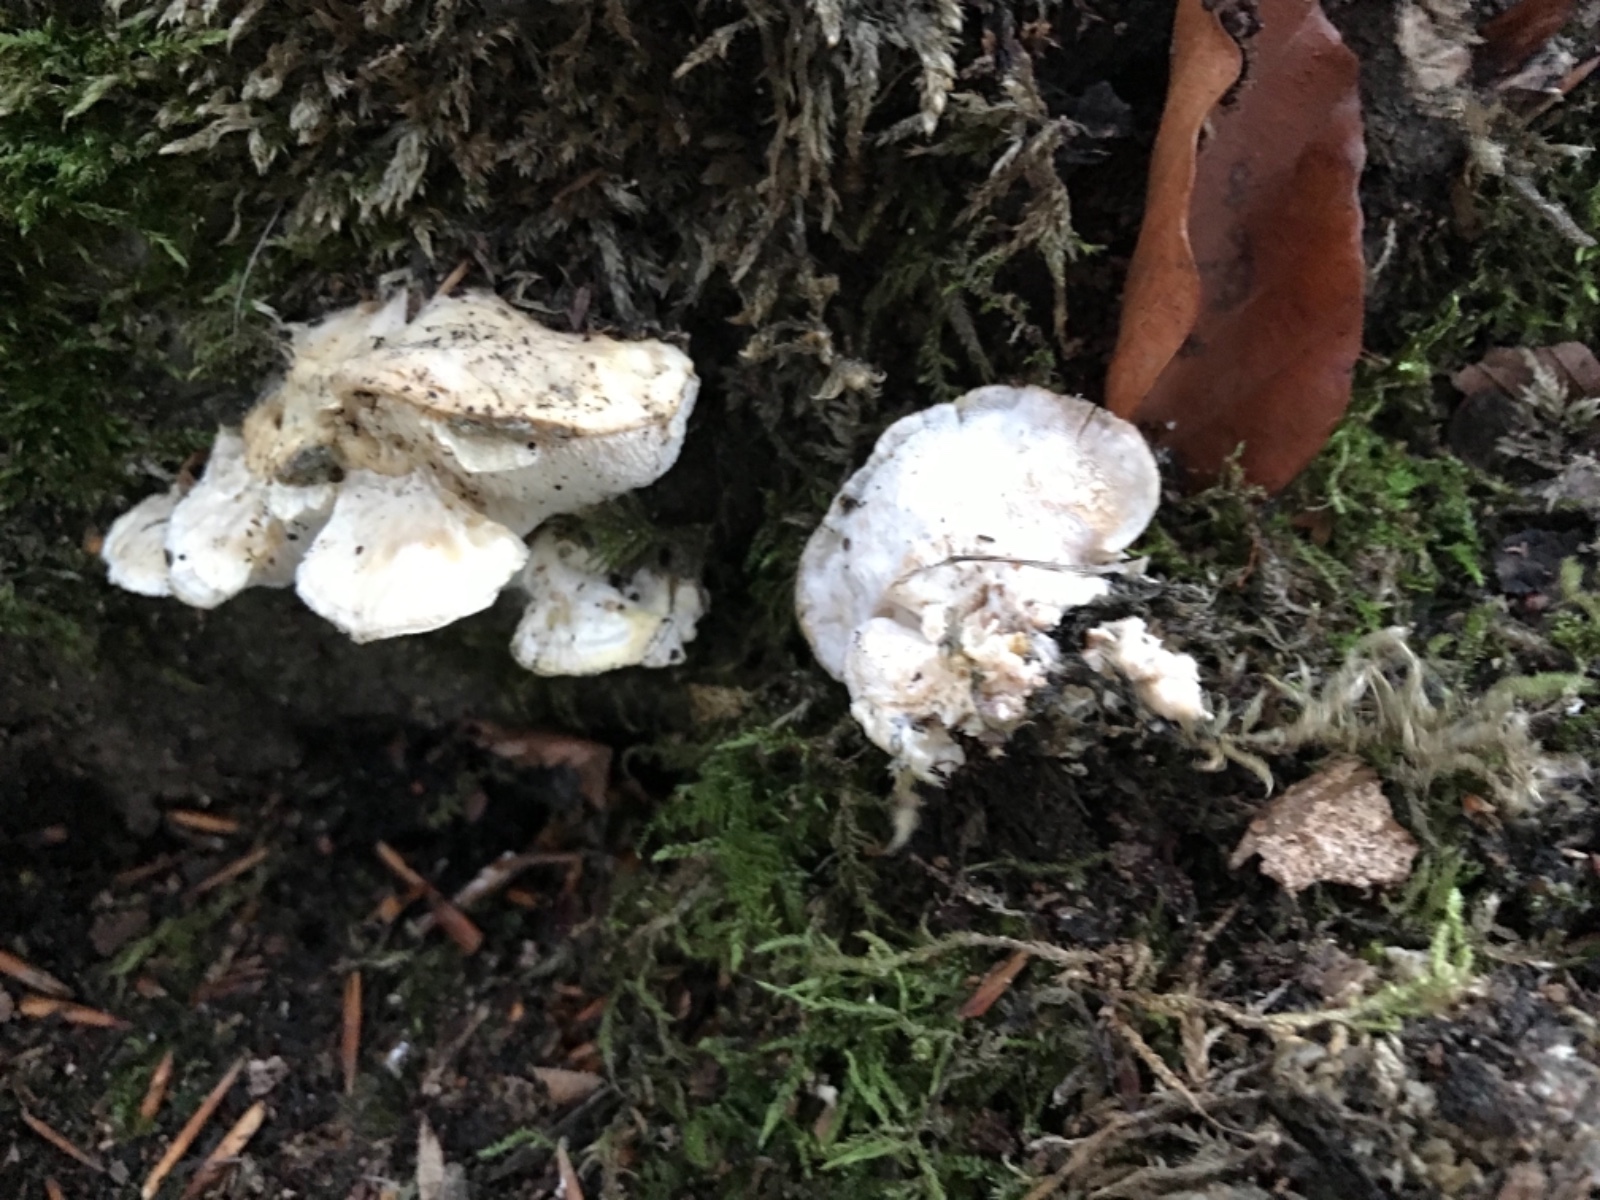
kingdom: Fungi
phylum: Basidiomycota
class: Agaricomycetes
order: Polyporales
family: Incrustoporiaceae
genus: Tyromyces
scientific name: Tyromyces lacteus
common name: mælkehvid kødporesvamp
